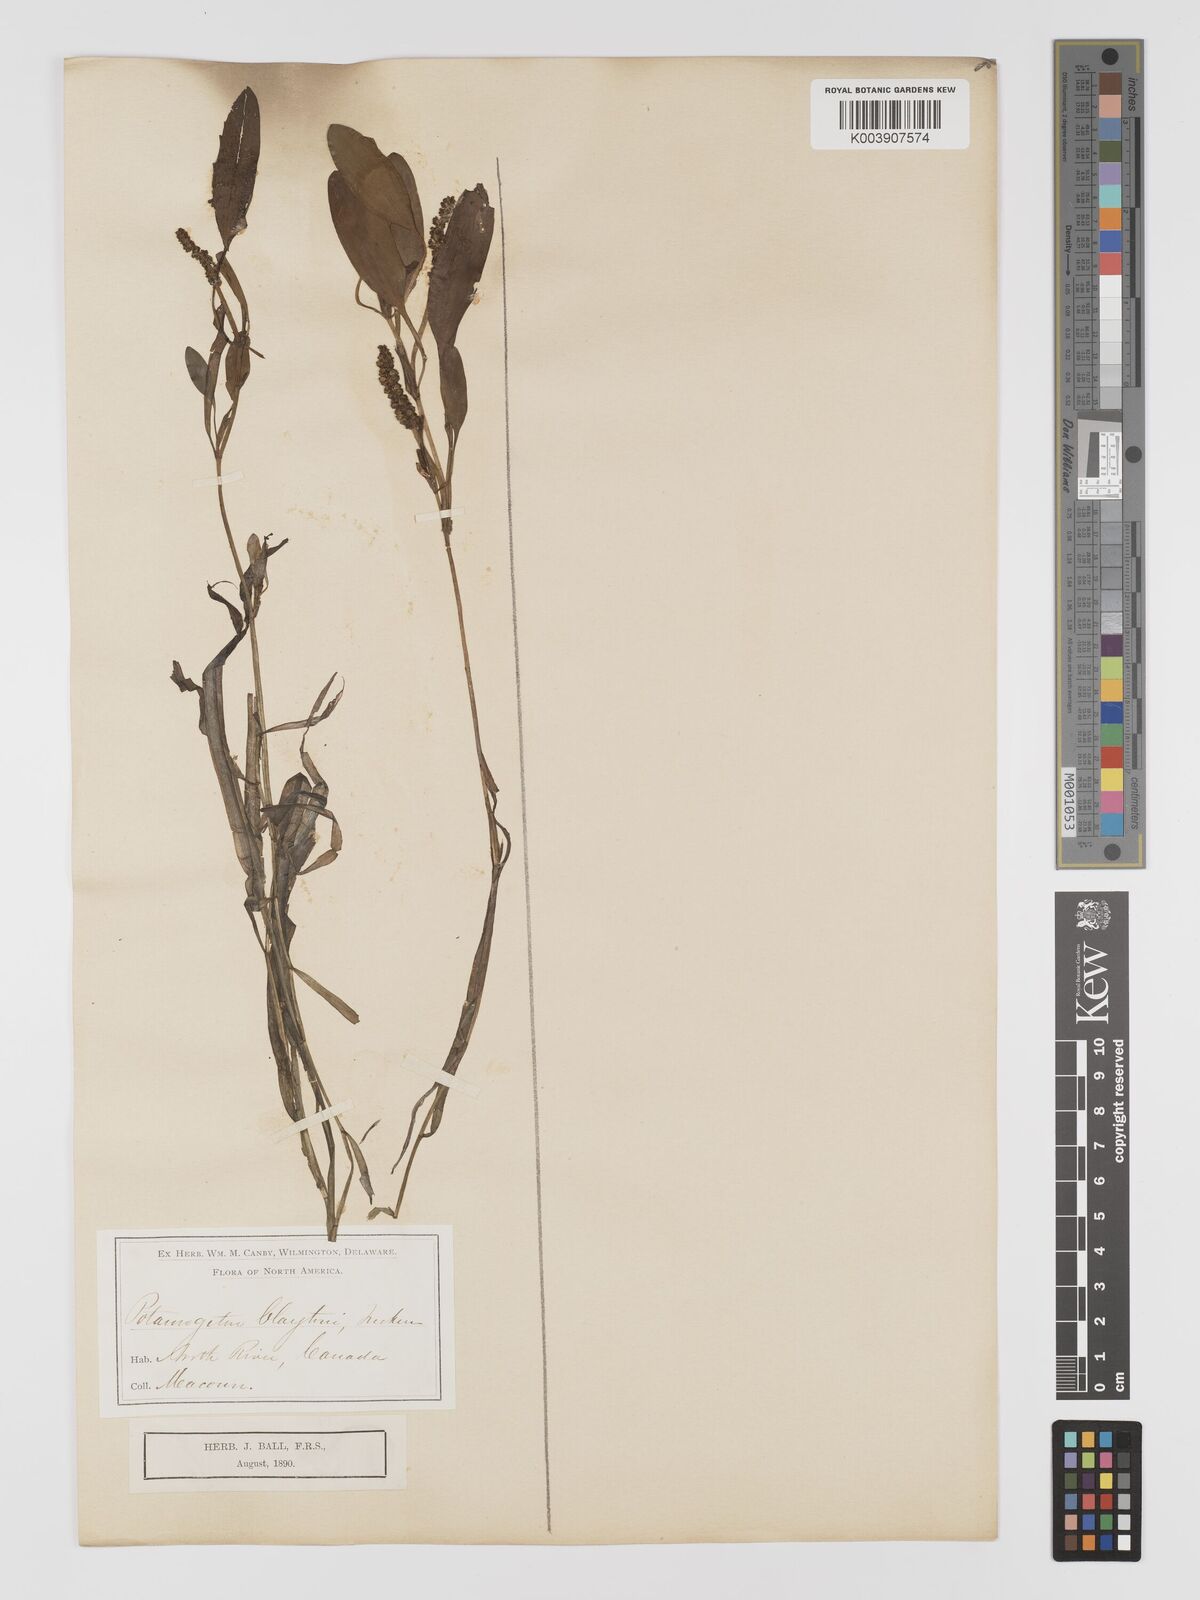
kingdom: Plantae
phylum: Tracheophyta
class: Liliopsida
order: Alismatales
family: Potamogetonaceae
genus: Potamogeton
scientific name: Potamogeton epihydrus
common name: American pondweed
